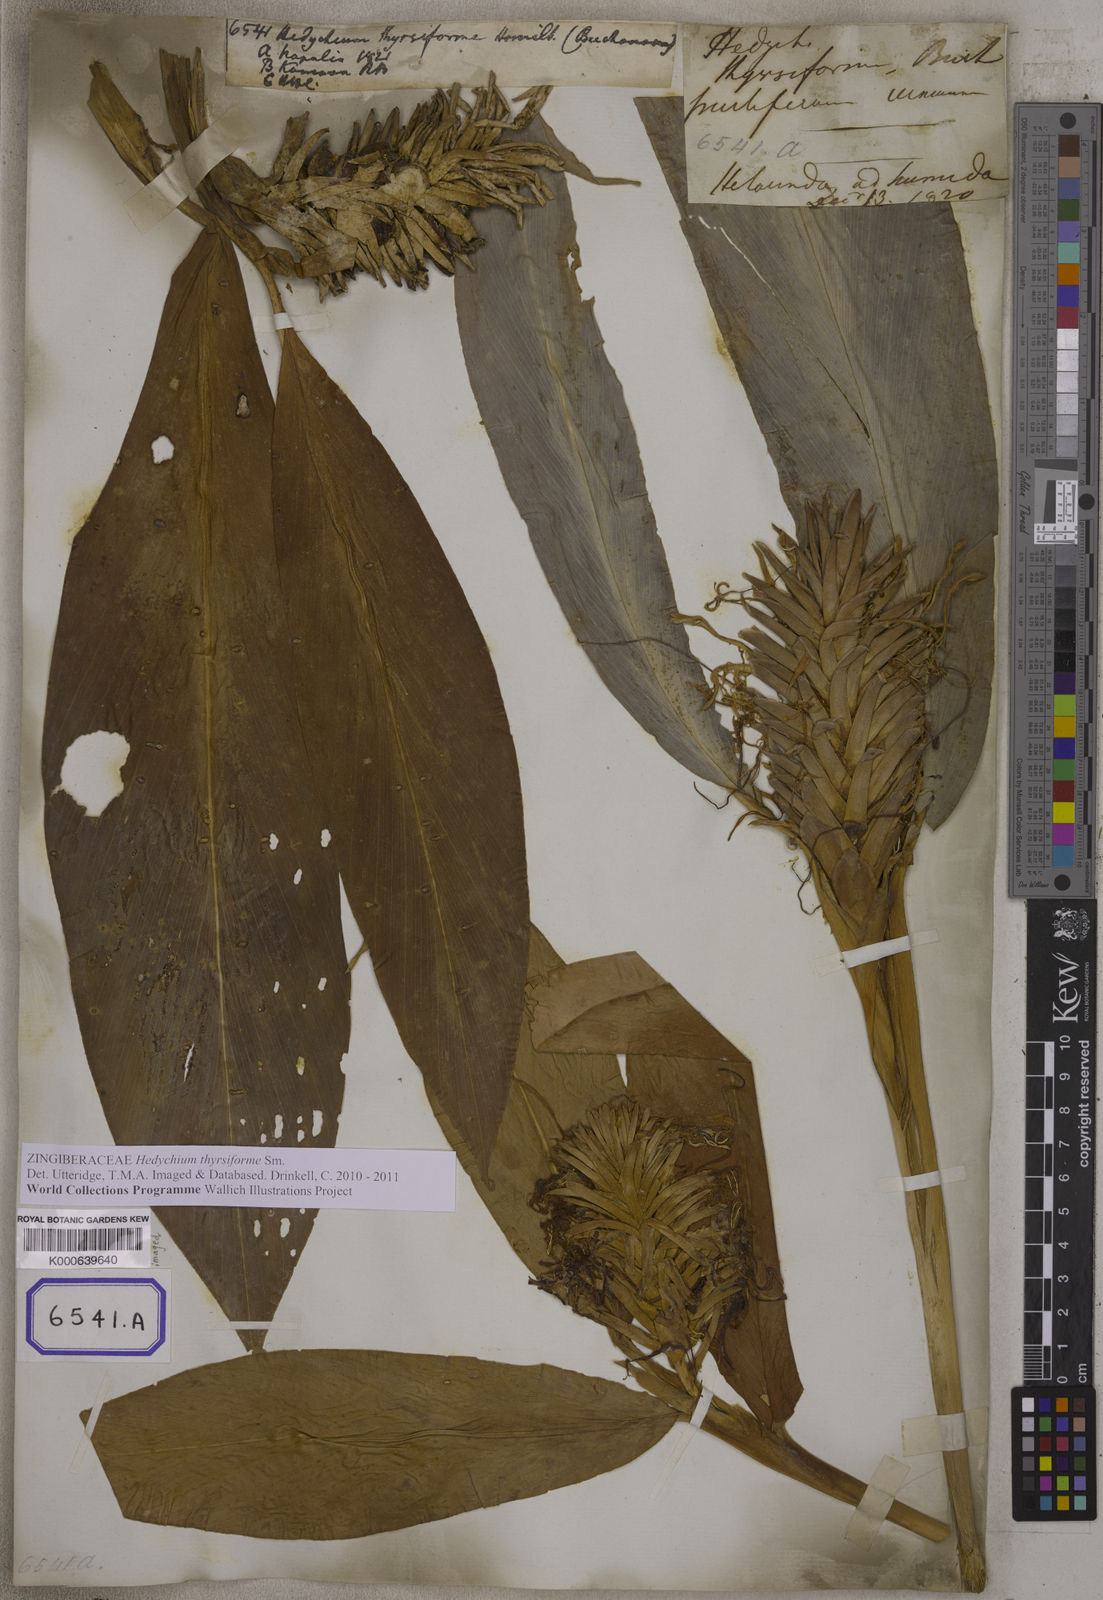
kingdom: Plantae
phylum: Tracheophyta
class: Liliopsida
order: Zingiberales
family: Zingiberaceae
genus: Hedychium
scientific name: Hedychium thyrsiforme
